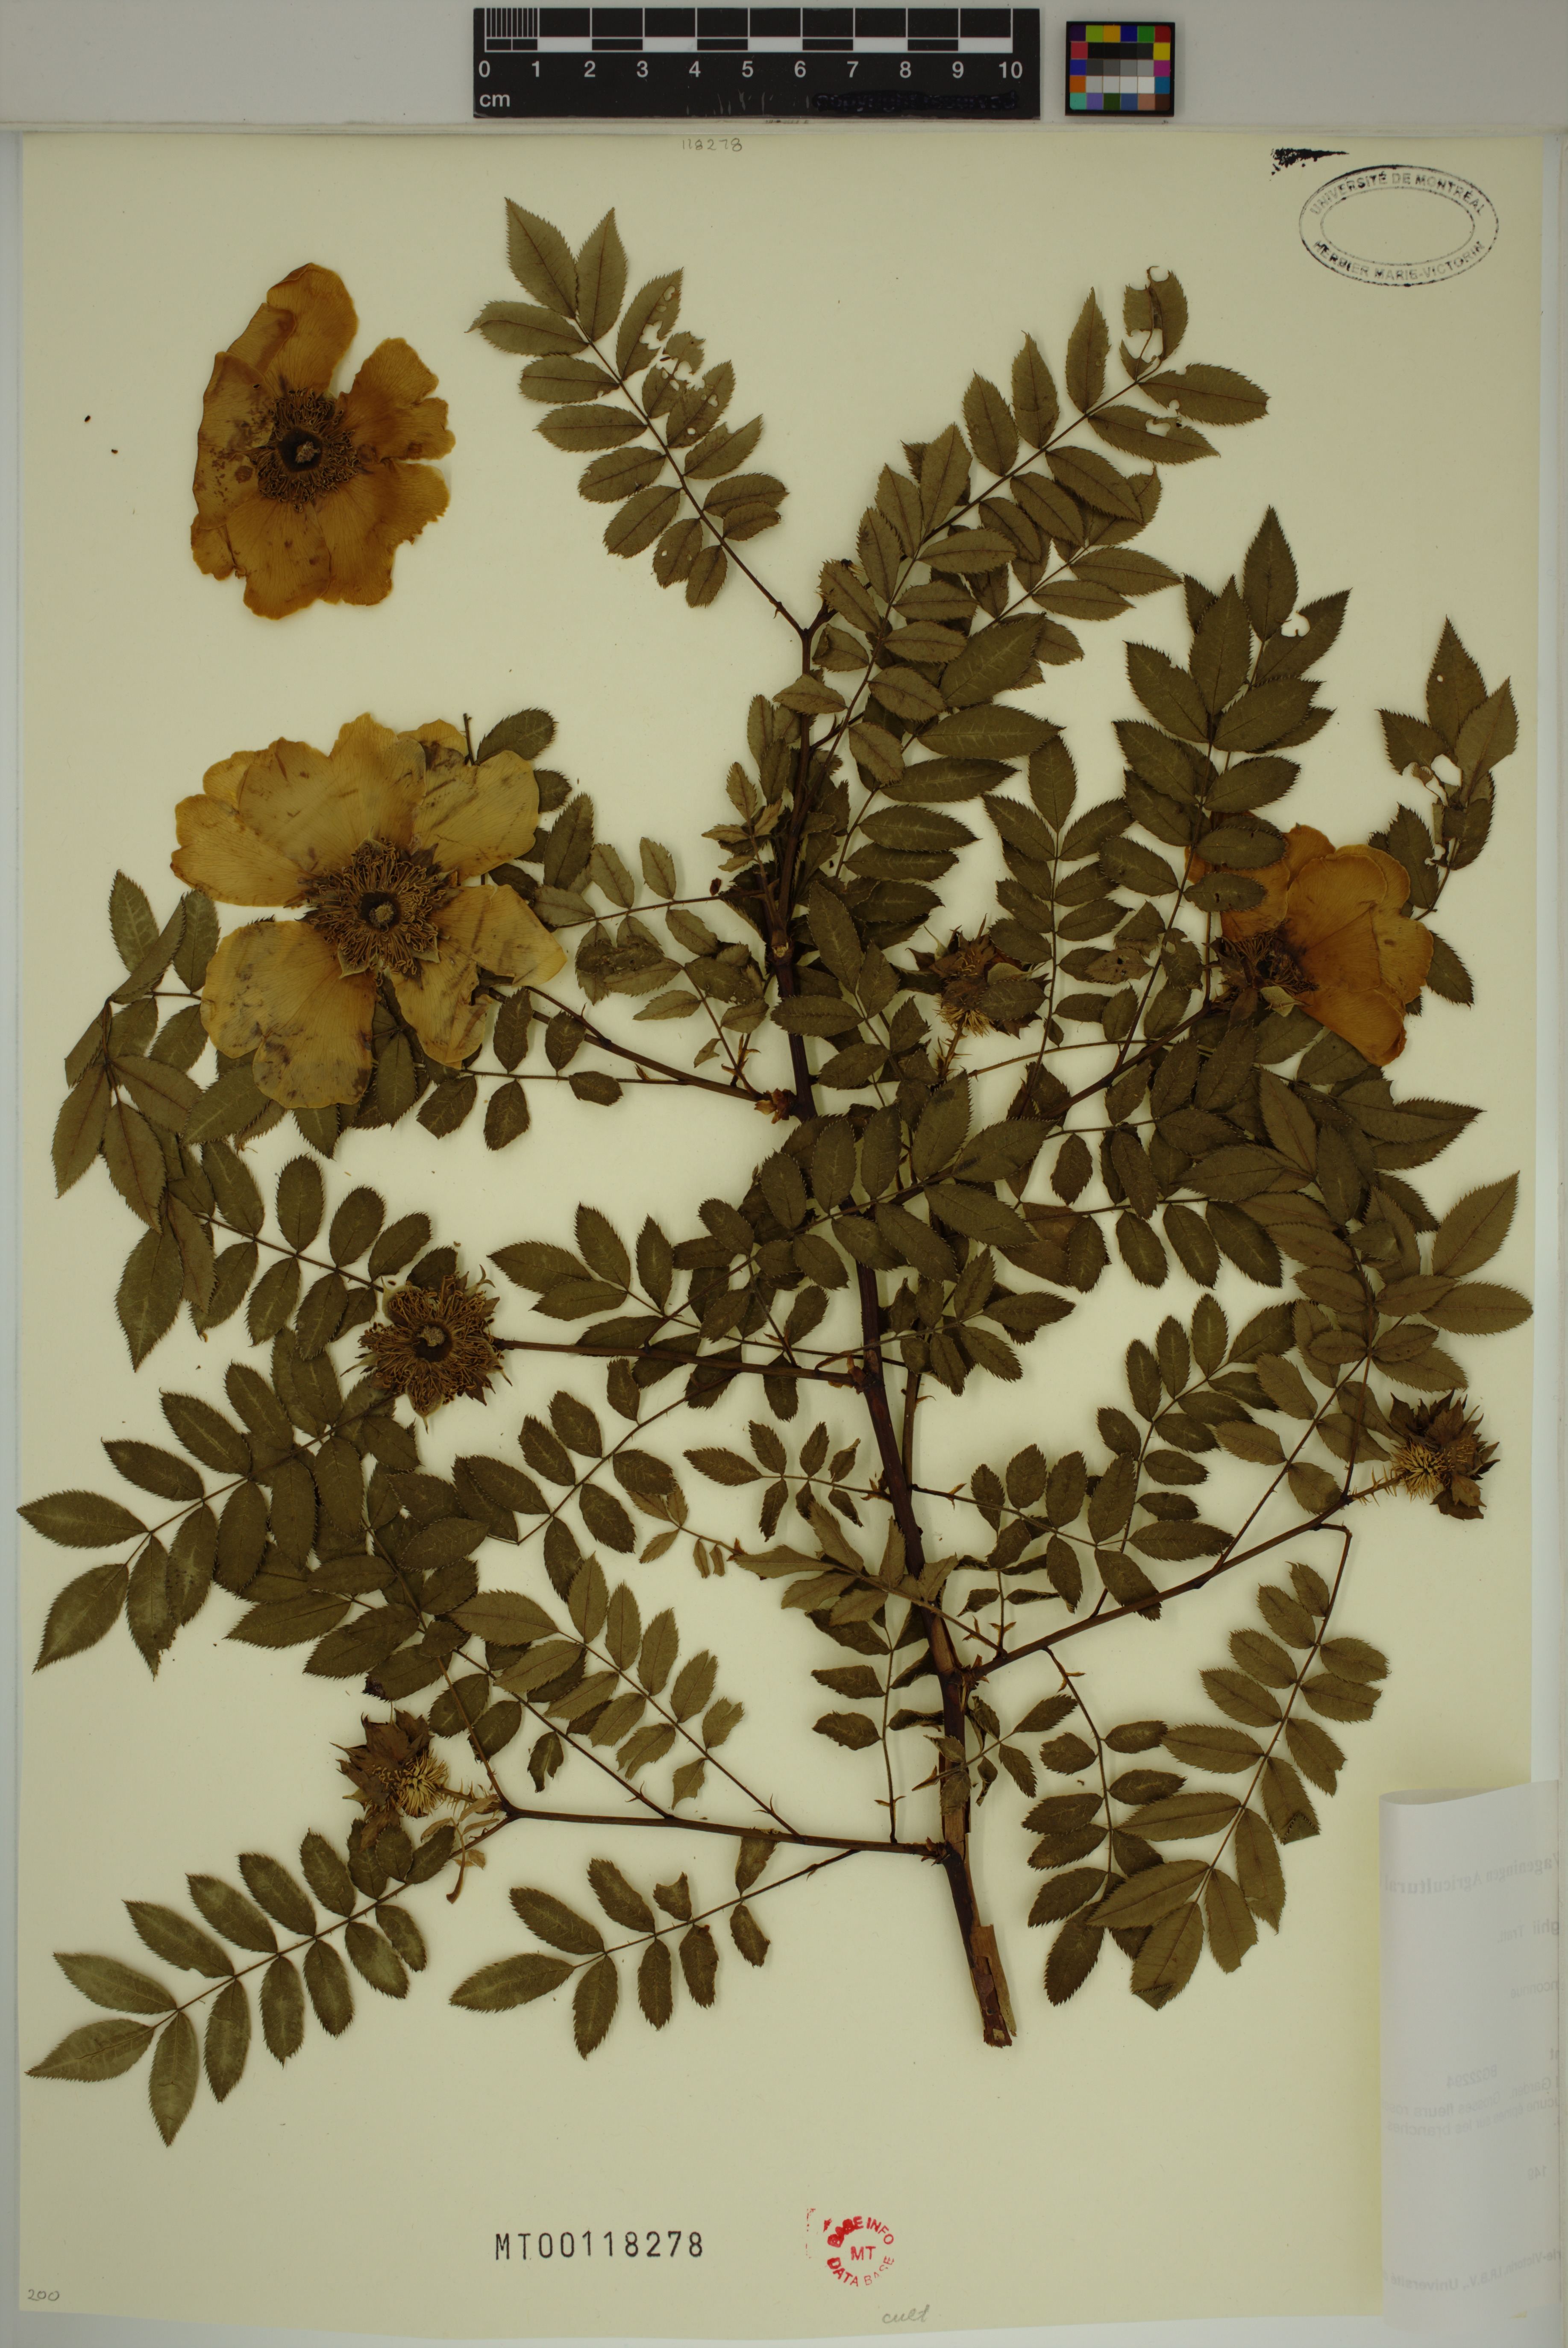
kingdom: Plantae
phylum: Tracheophyta
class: Magnoliopsida
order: Rosales
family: Rosaceae
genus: Rosa
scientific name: Rosa roxburghii
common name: Chinquapin rose
